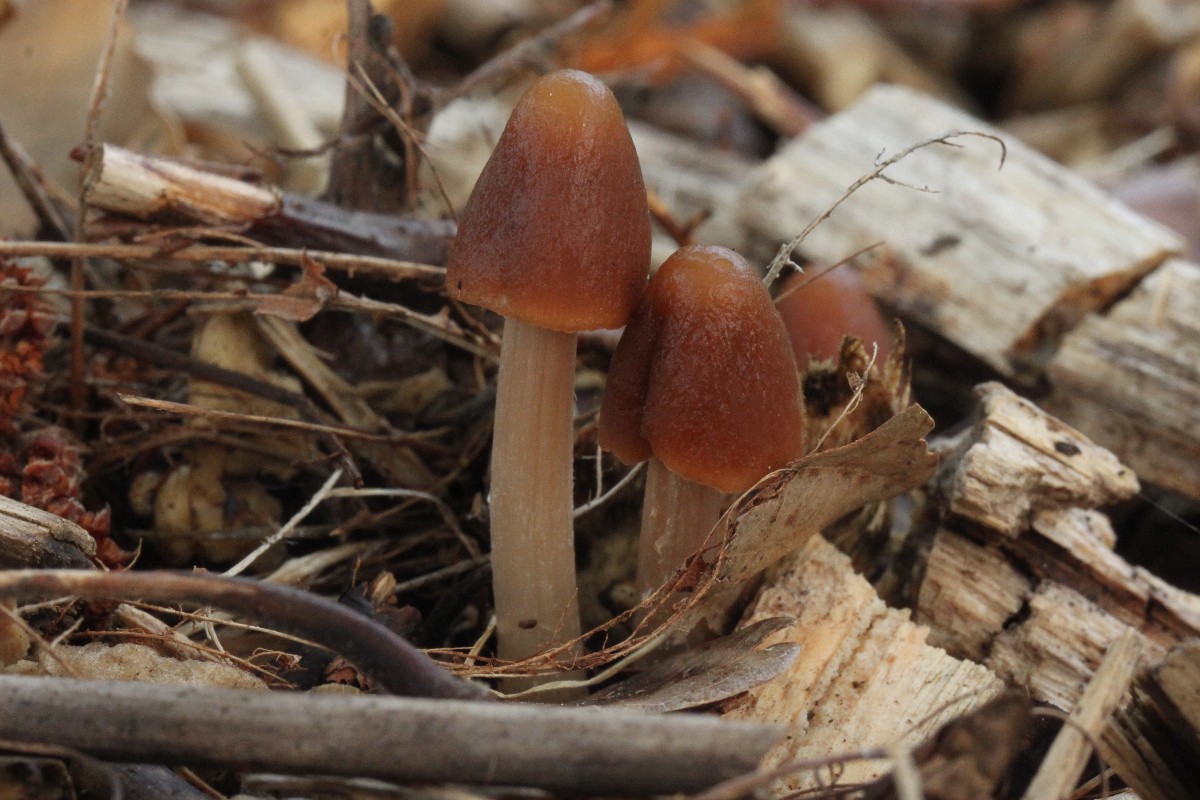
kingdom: Fungi
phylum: Basidiomycota
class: Agaricomycetes
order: Agaricales
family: Psathyrellaceae
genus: Parasola
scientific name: Parasola conopilea
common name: kegle-hjulhat
